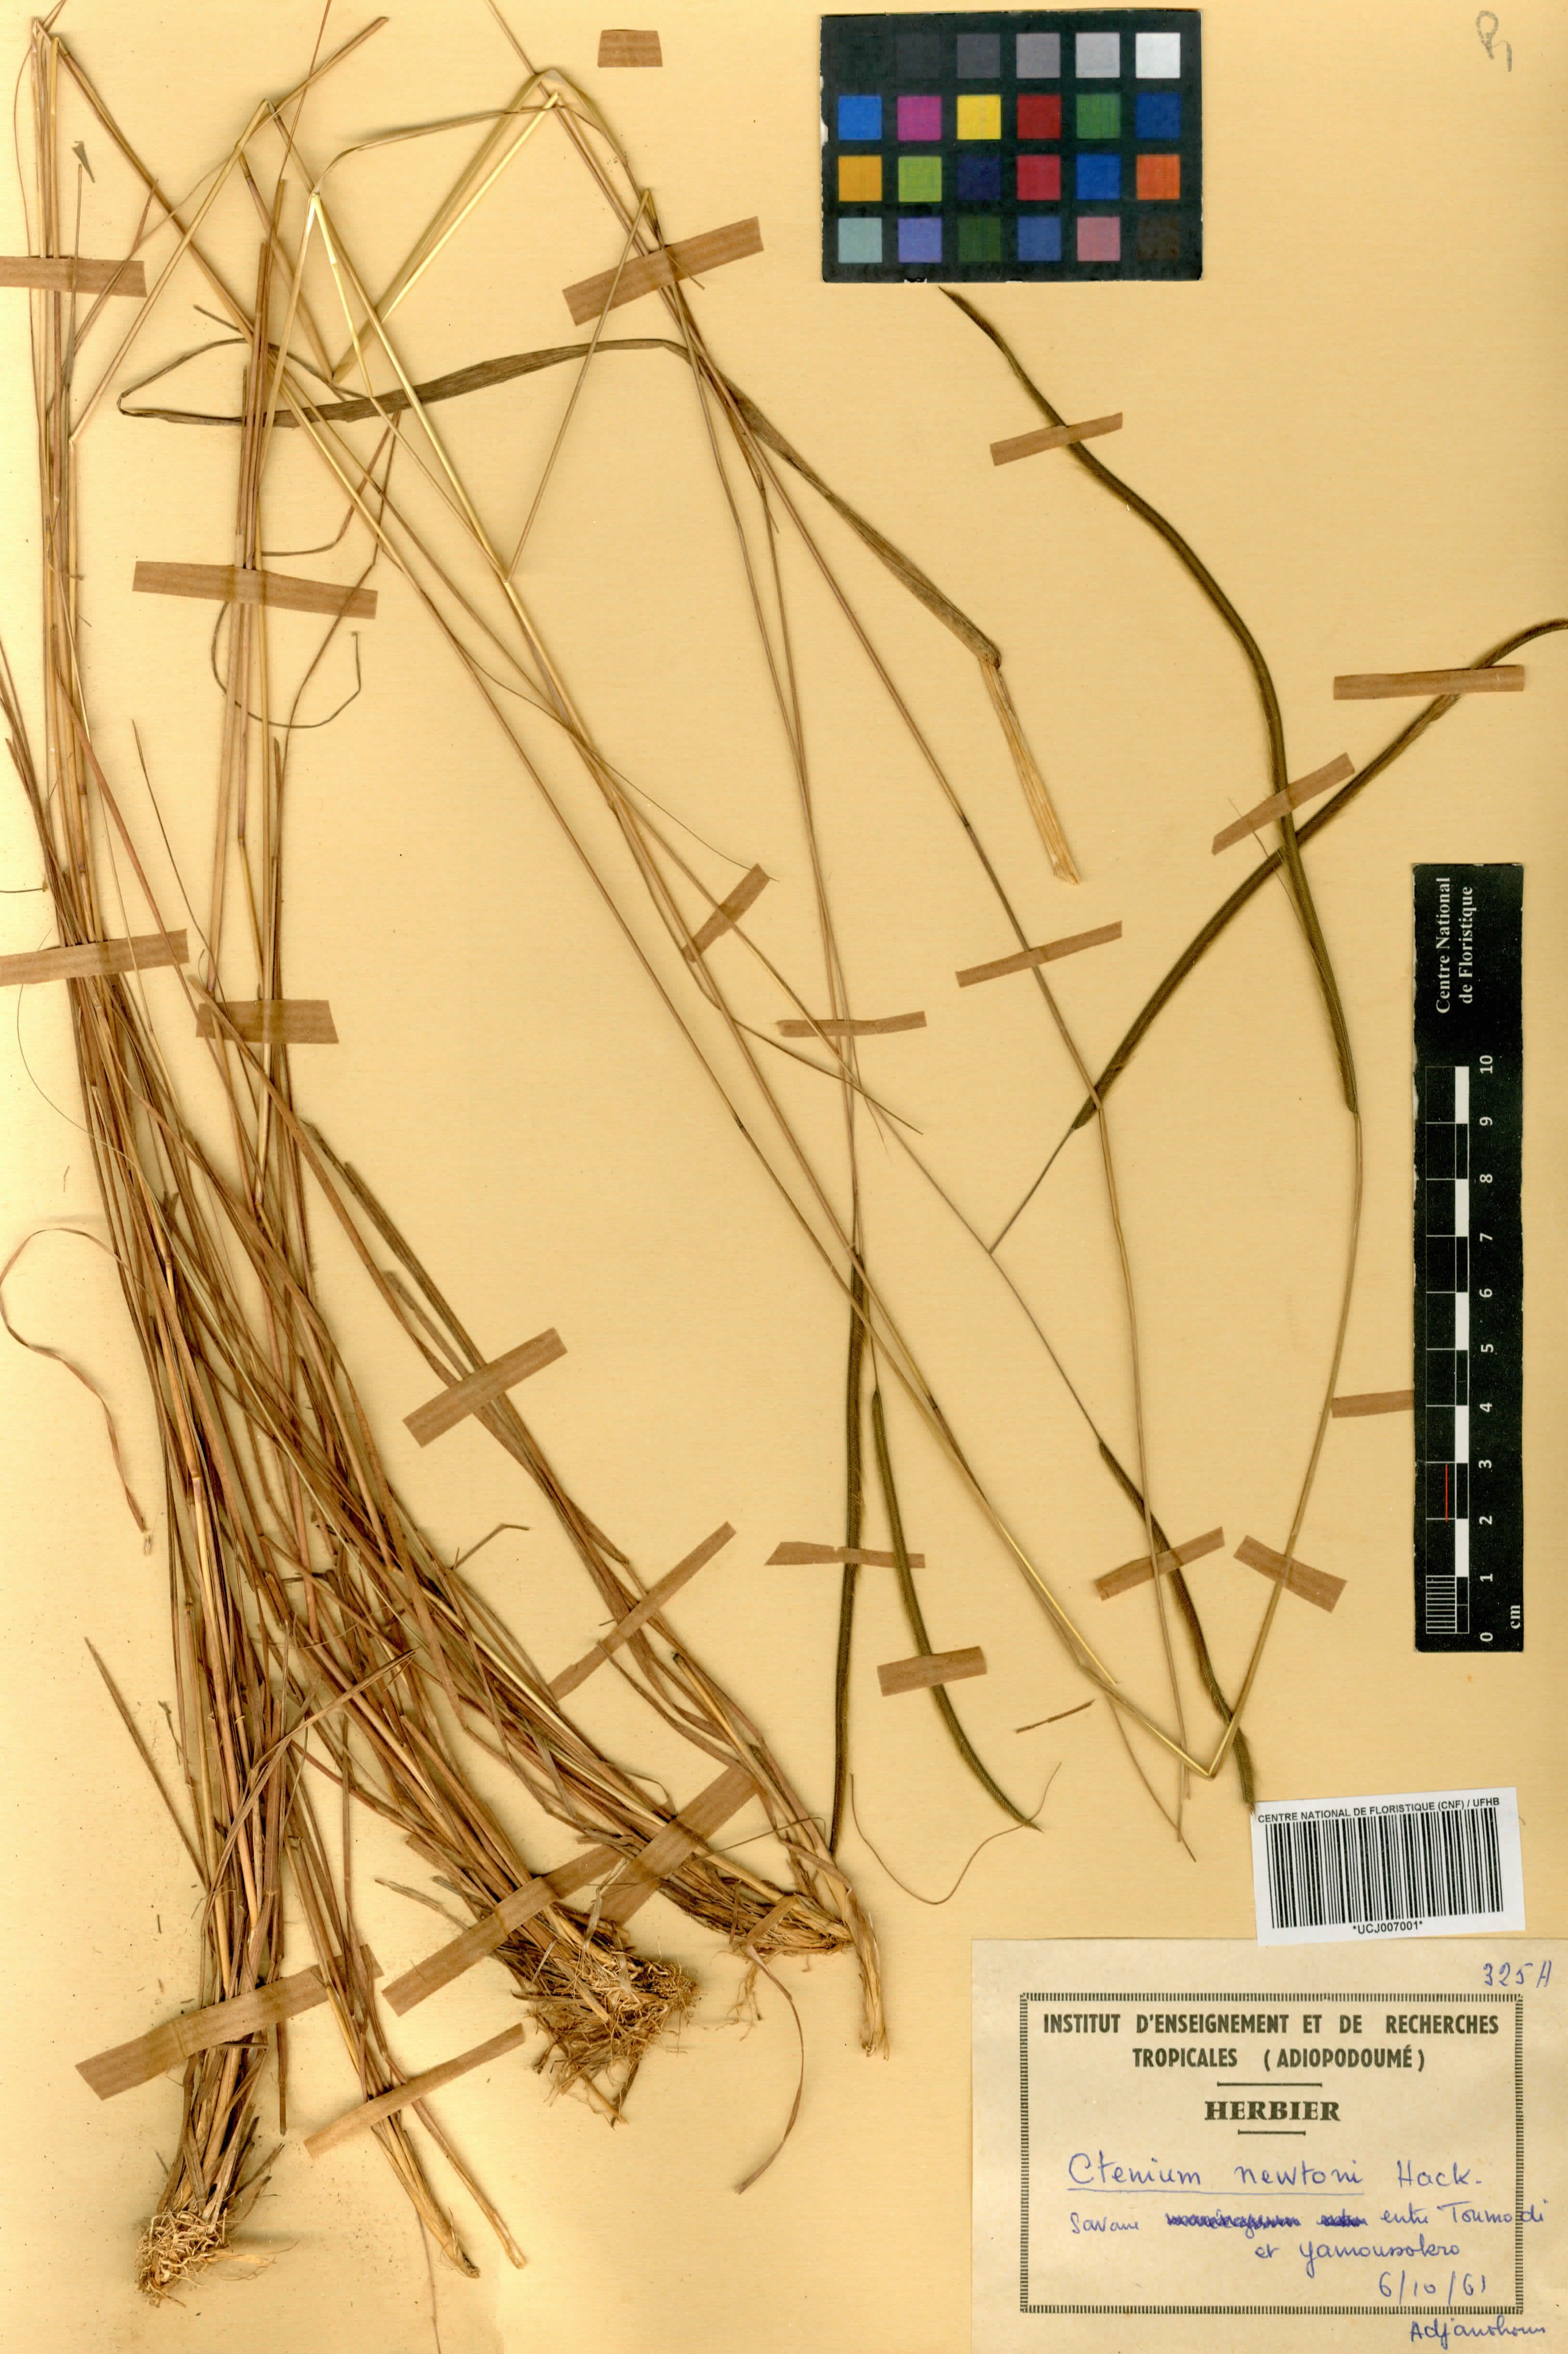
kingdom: Plantae
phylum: Tracheophyta
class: Liliopsida
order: Poales
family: Poaceae
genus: Ctenium
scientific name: Ctenium newtonii
